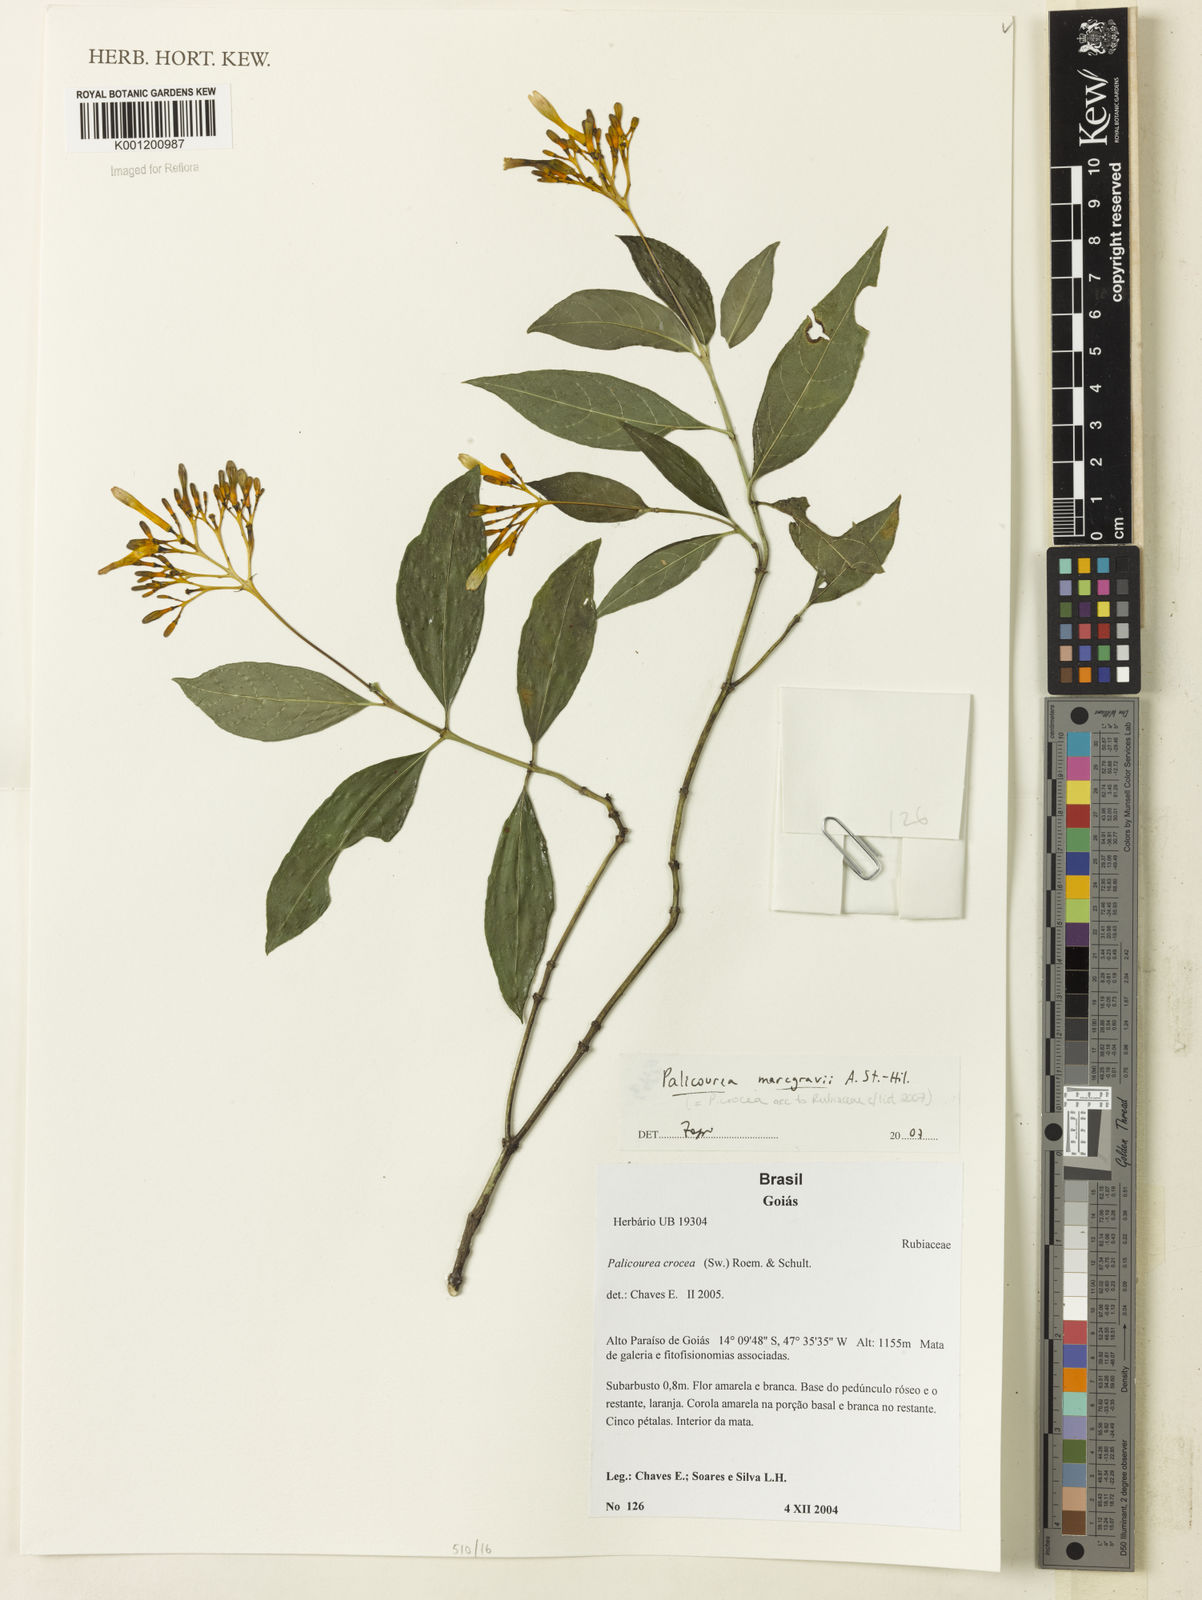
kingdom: Plantae
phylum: Tracheophyta
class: Magnoliopsida
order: Gentianales
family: Rubiaceae
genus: Palicourea
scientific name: Palicourea marcgravii
